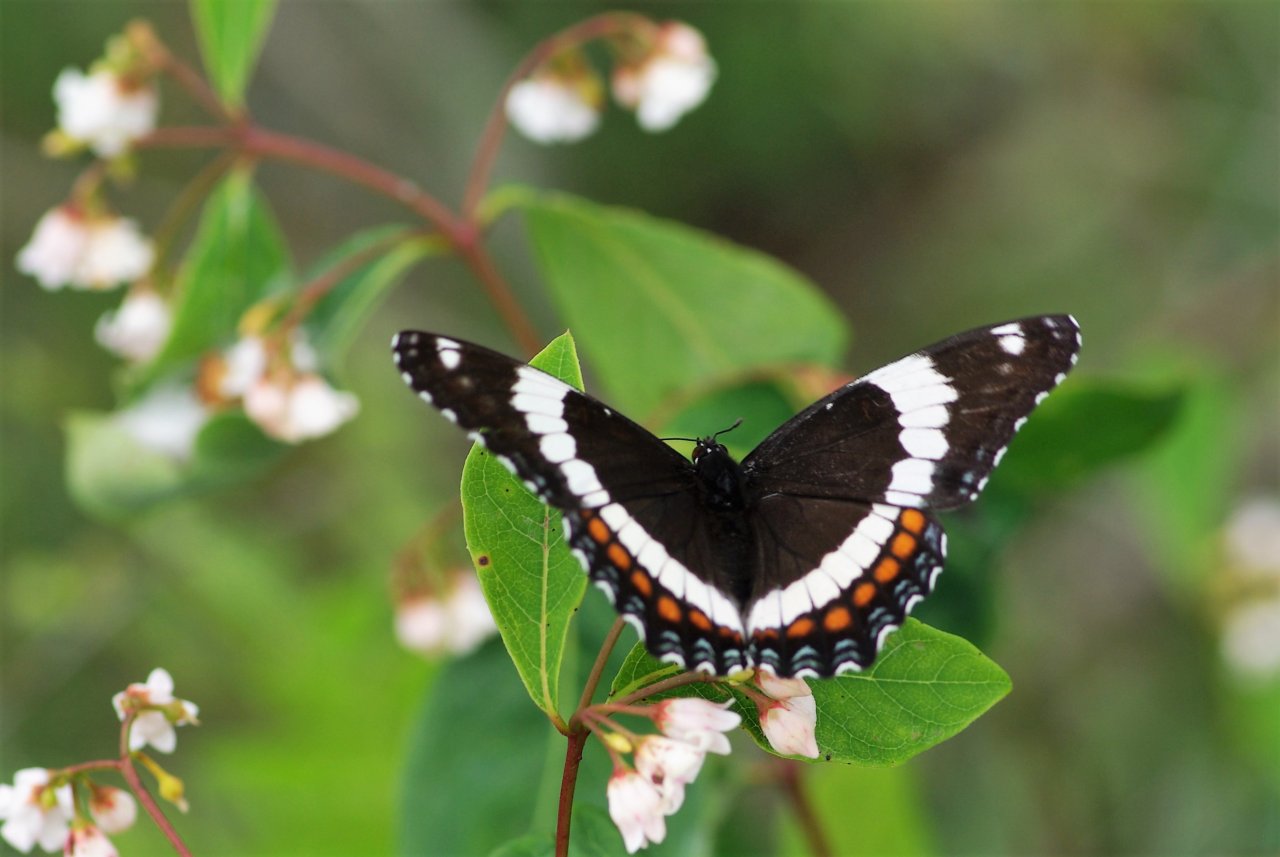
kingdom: Animalia
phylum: Arthropoda
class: Insecta
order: Lepidoptera
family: Nymphalidae
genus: Limenitis
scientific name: Limenitis arthemis
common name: Red-spotted Admiral
